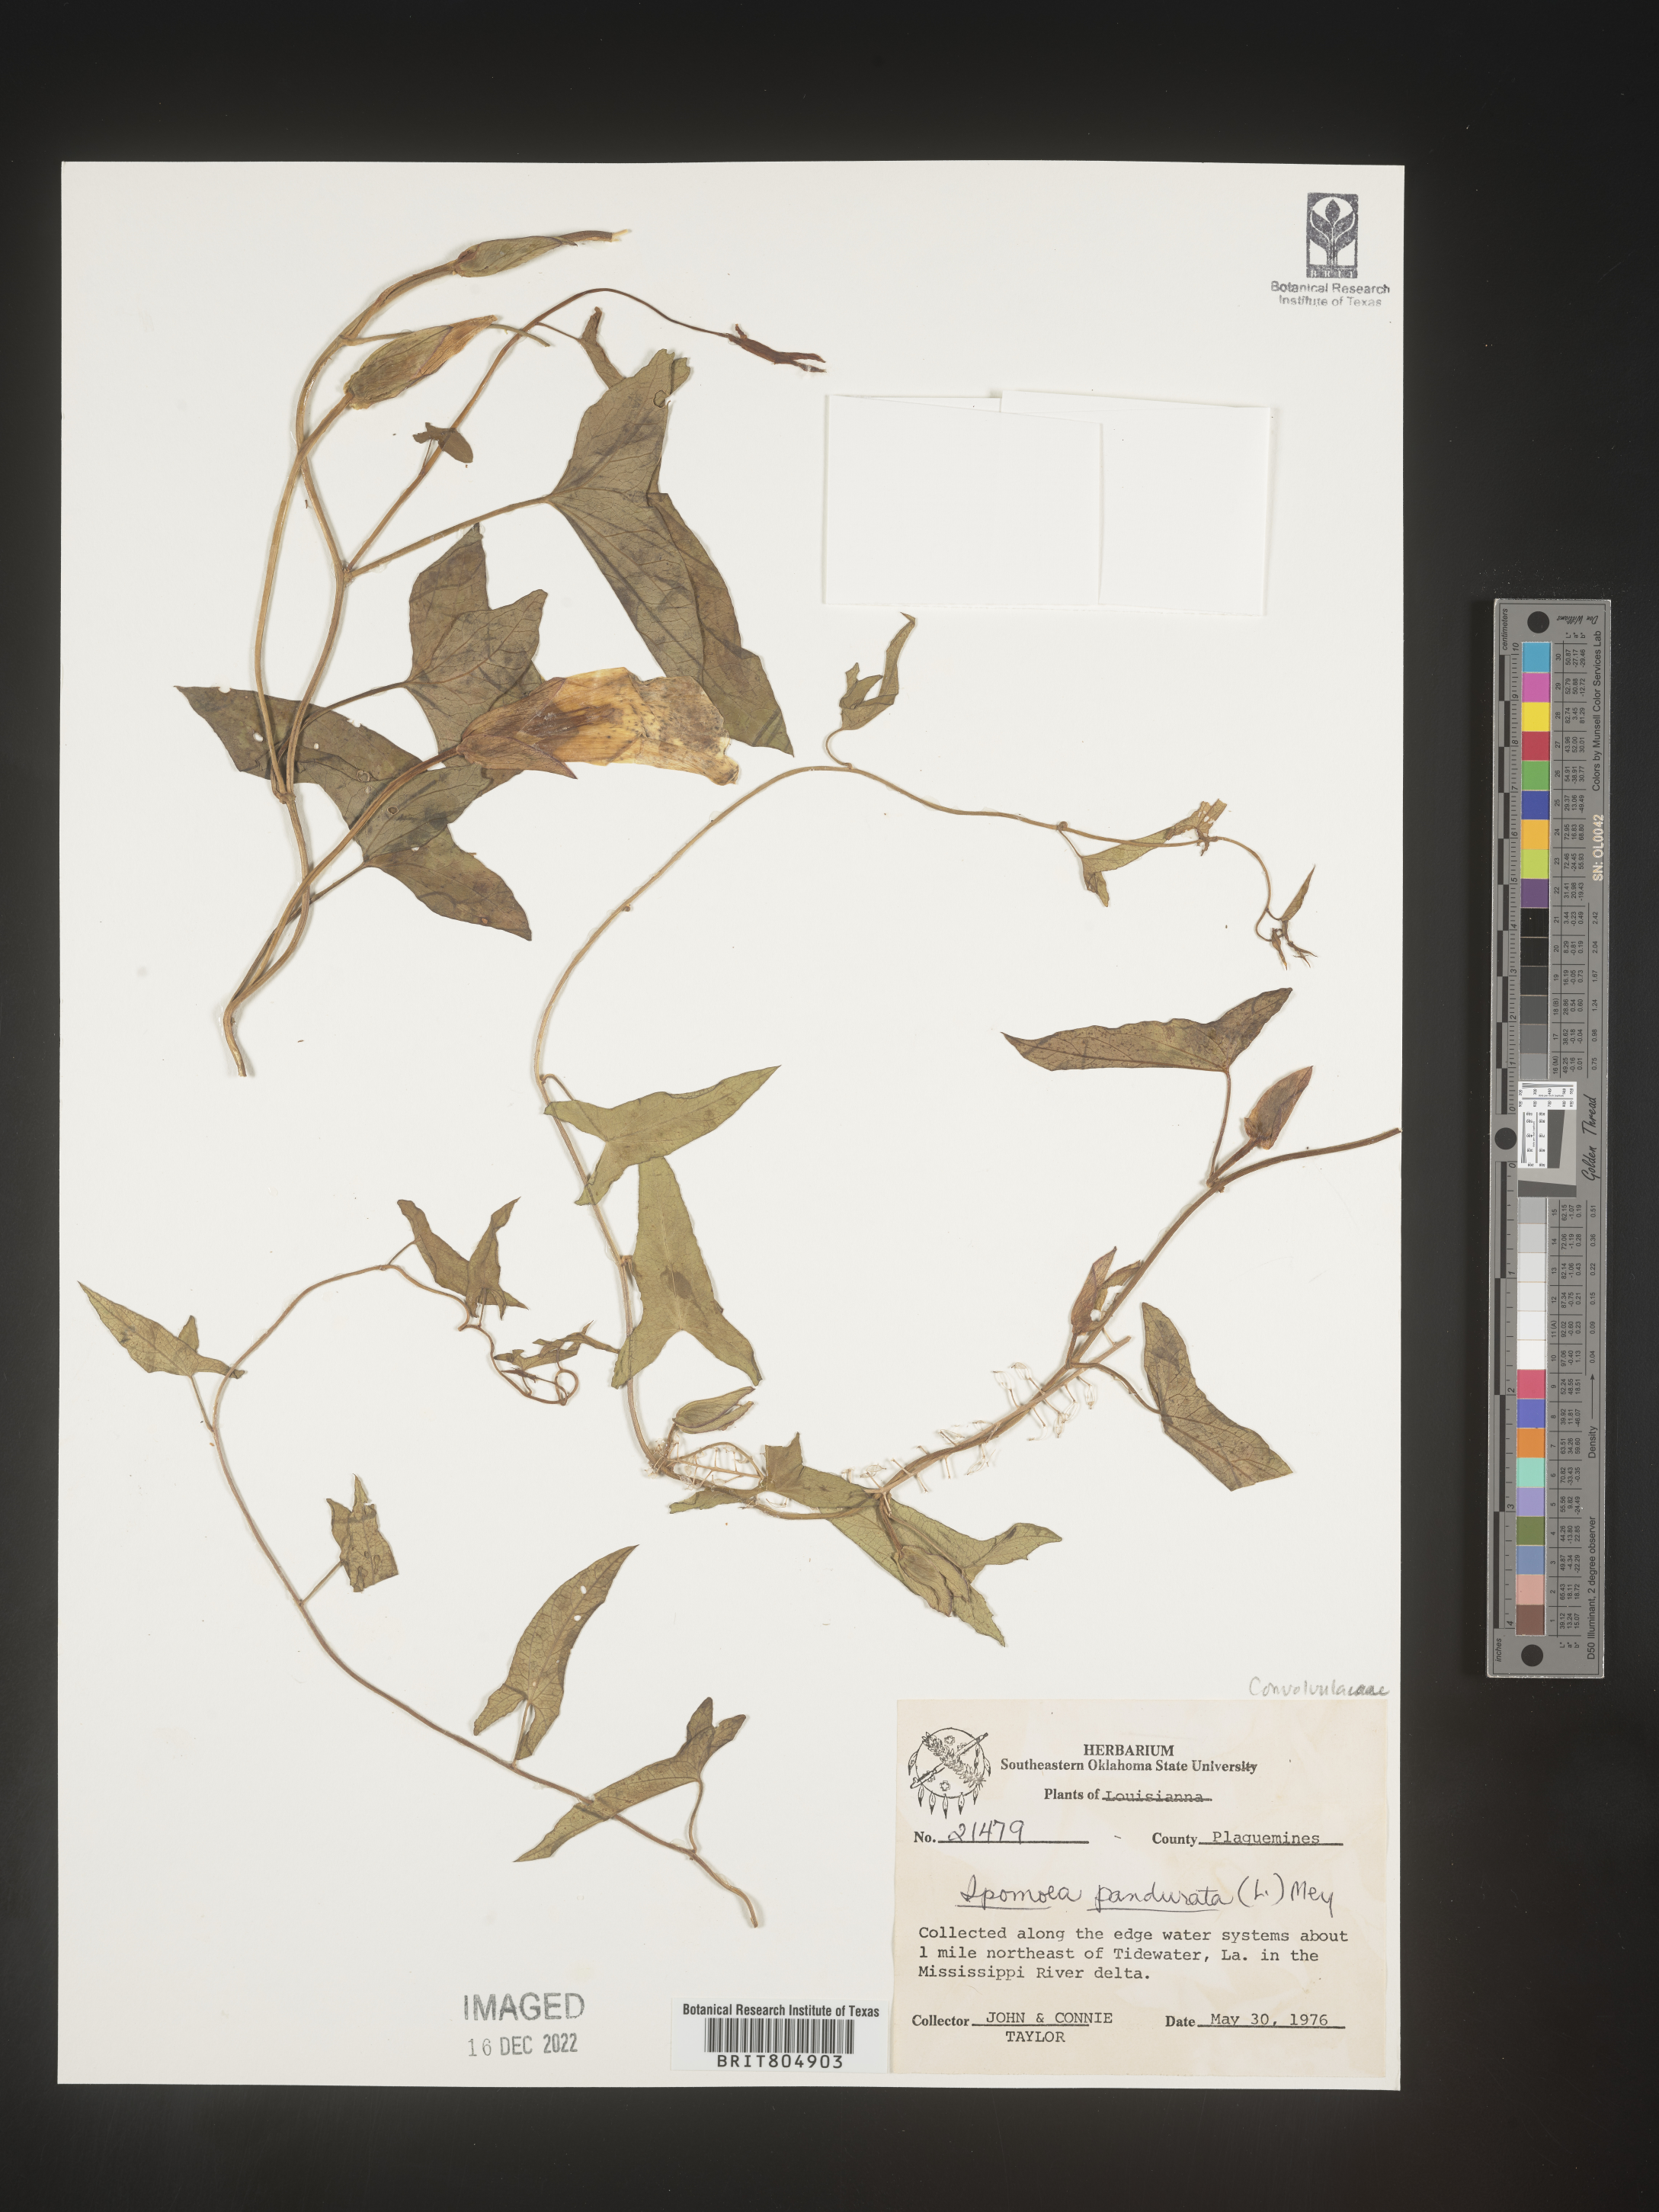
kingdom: Plantae
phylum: Tracheophyta
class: Magnoliopsida
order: Solanales
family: Convolvulaceae
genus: Ipomoea
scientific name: Ipomoea pandurata
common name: Man-of-the-earth
